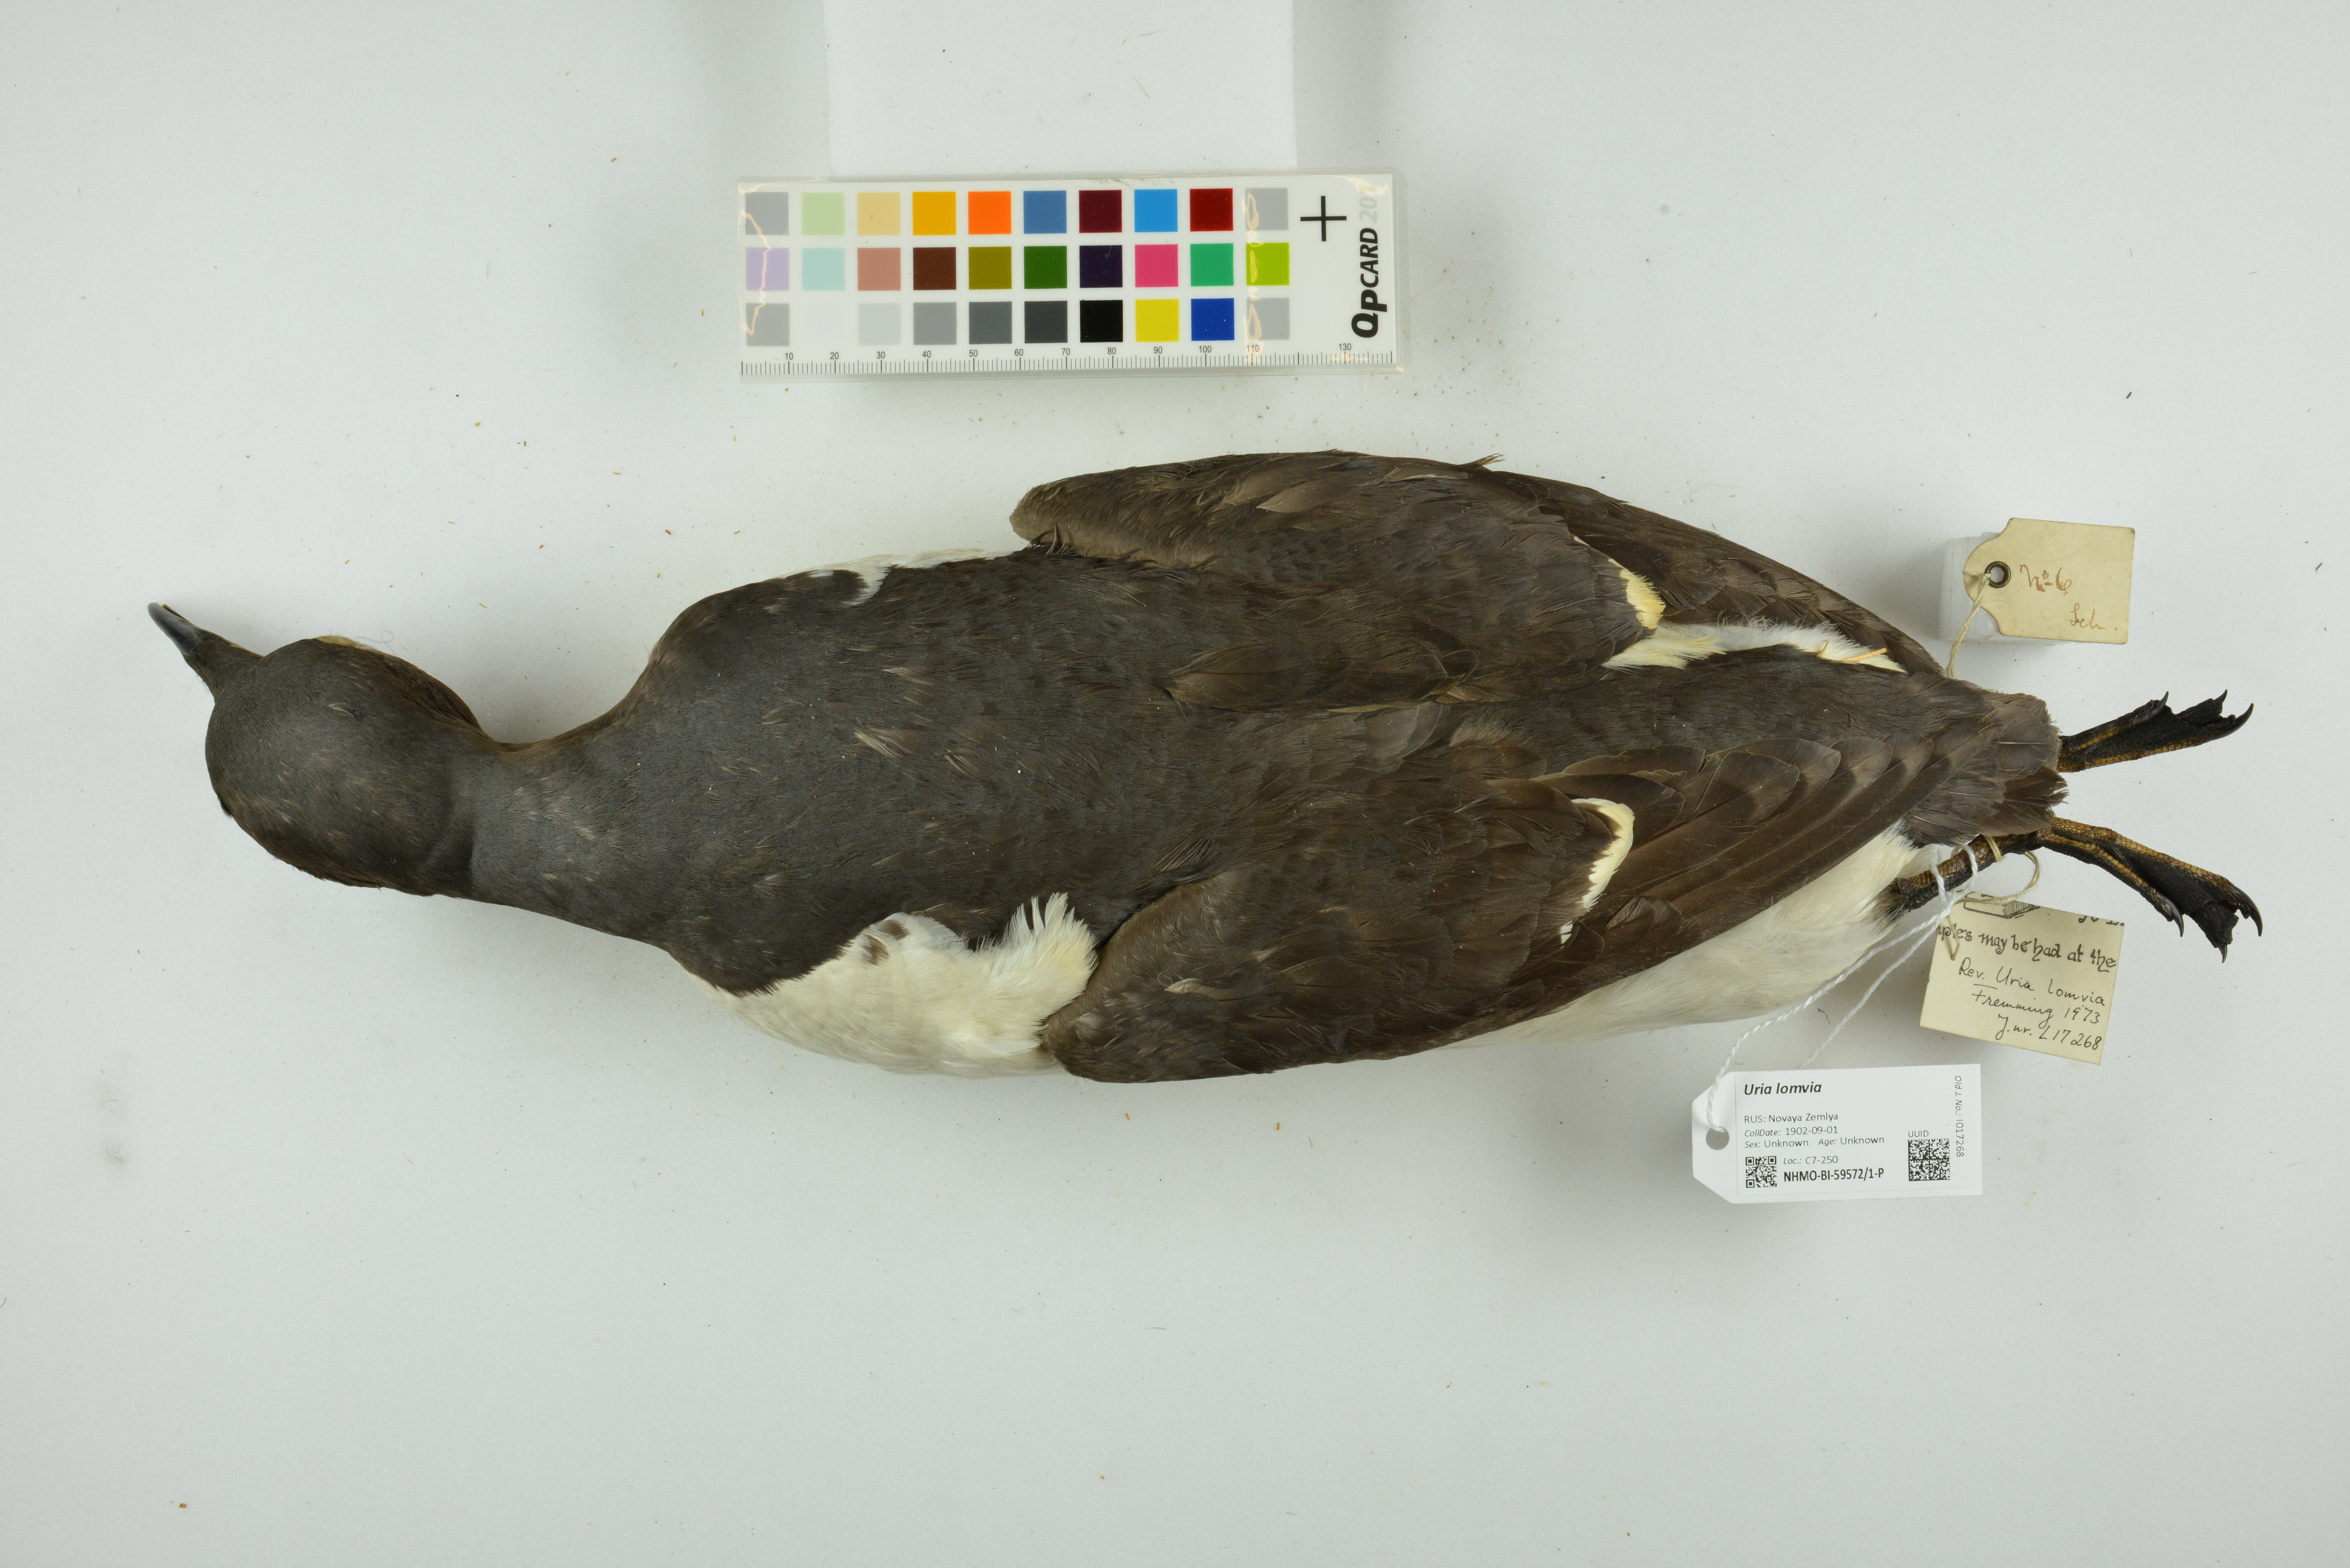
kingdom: Animalia
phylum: Chordata
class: Aves
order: Charadriiformes
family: Alcidae
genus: Uria
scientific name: Uria lomvia
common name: Thick-billed murre
